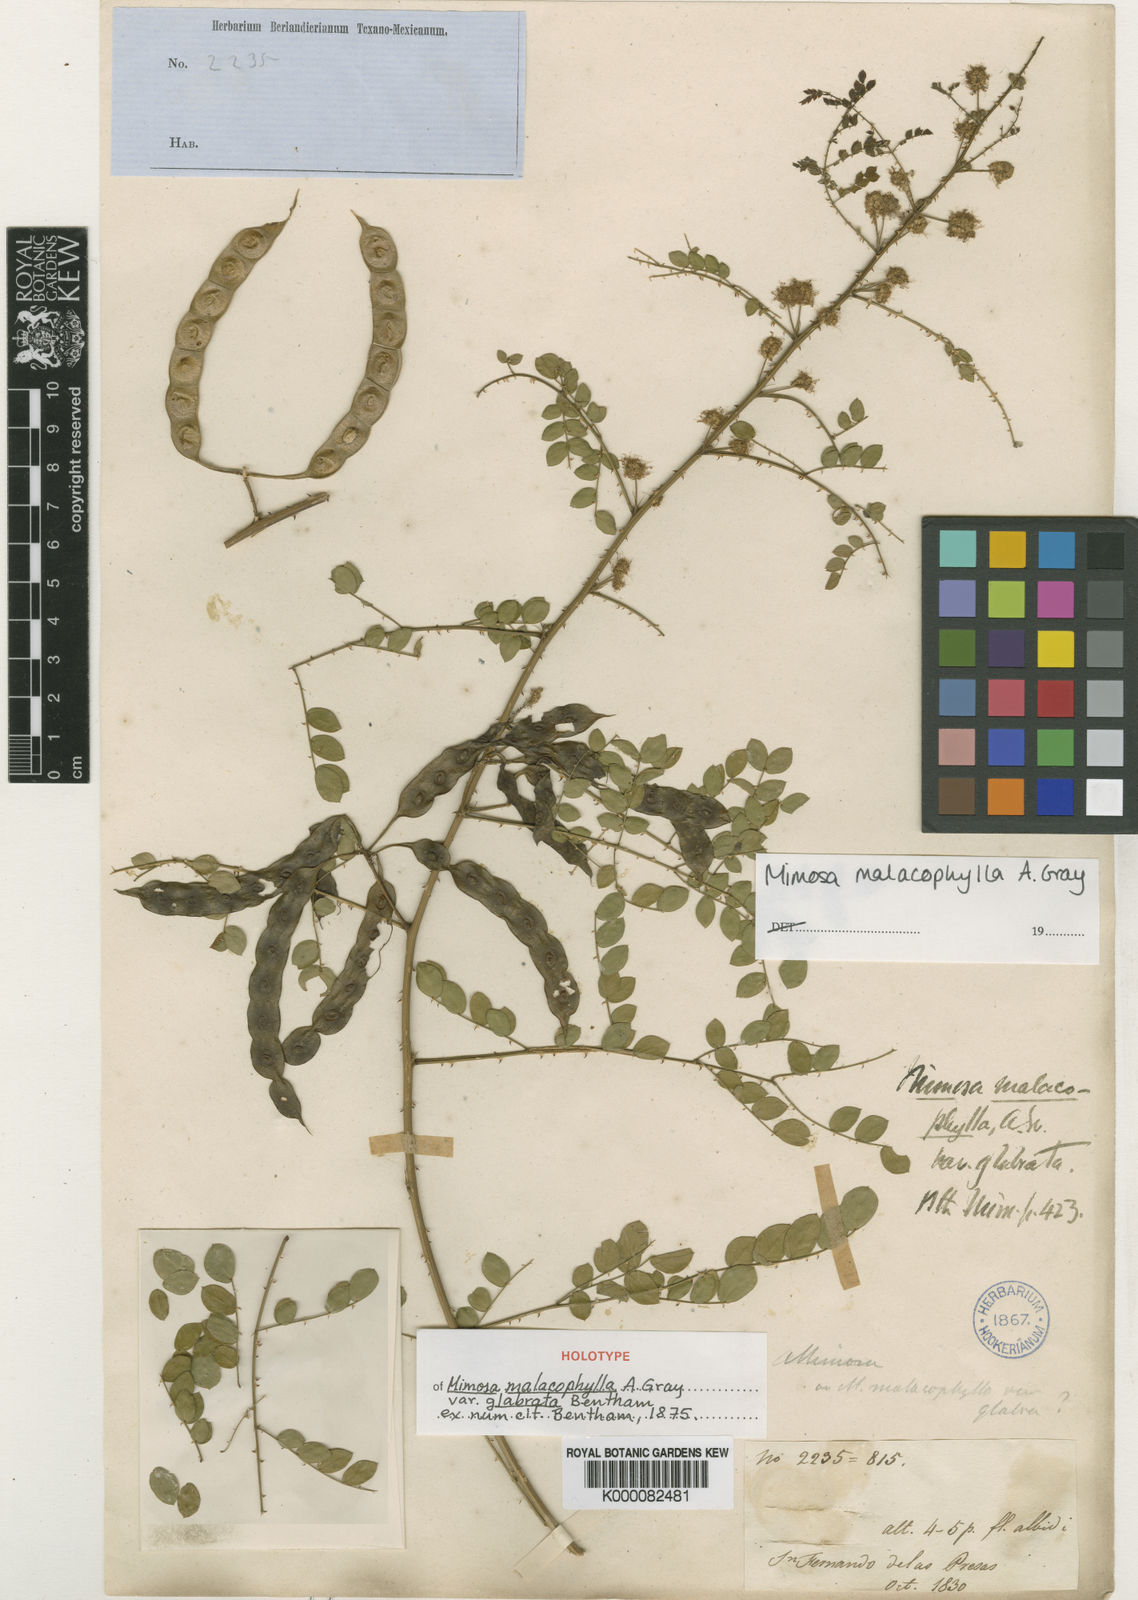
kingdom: Plantae
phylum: Tracheophyta
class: Magnoliopsida
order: Fabales
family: Fabaceae
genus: Mimosa
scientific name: Mimosa malacophylla
